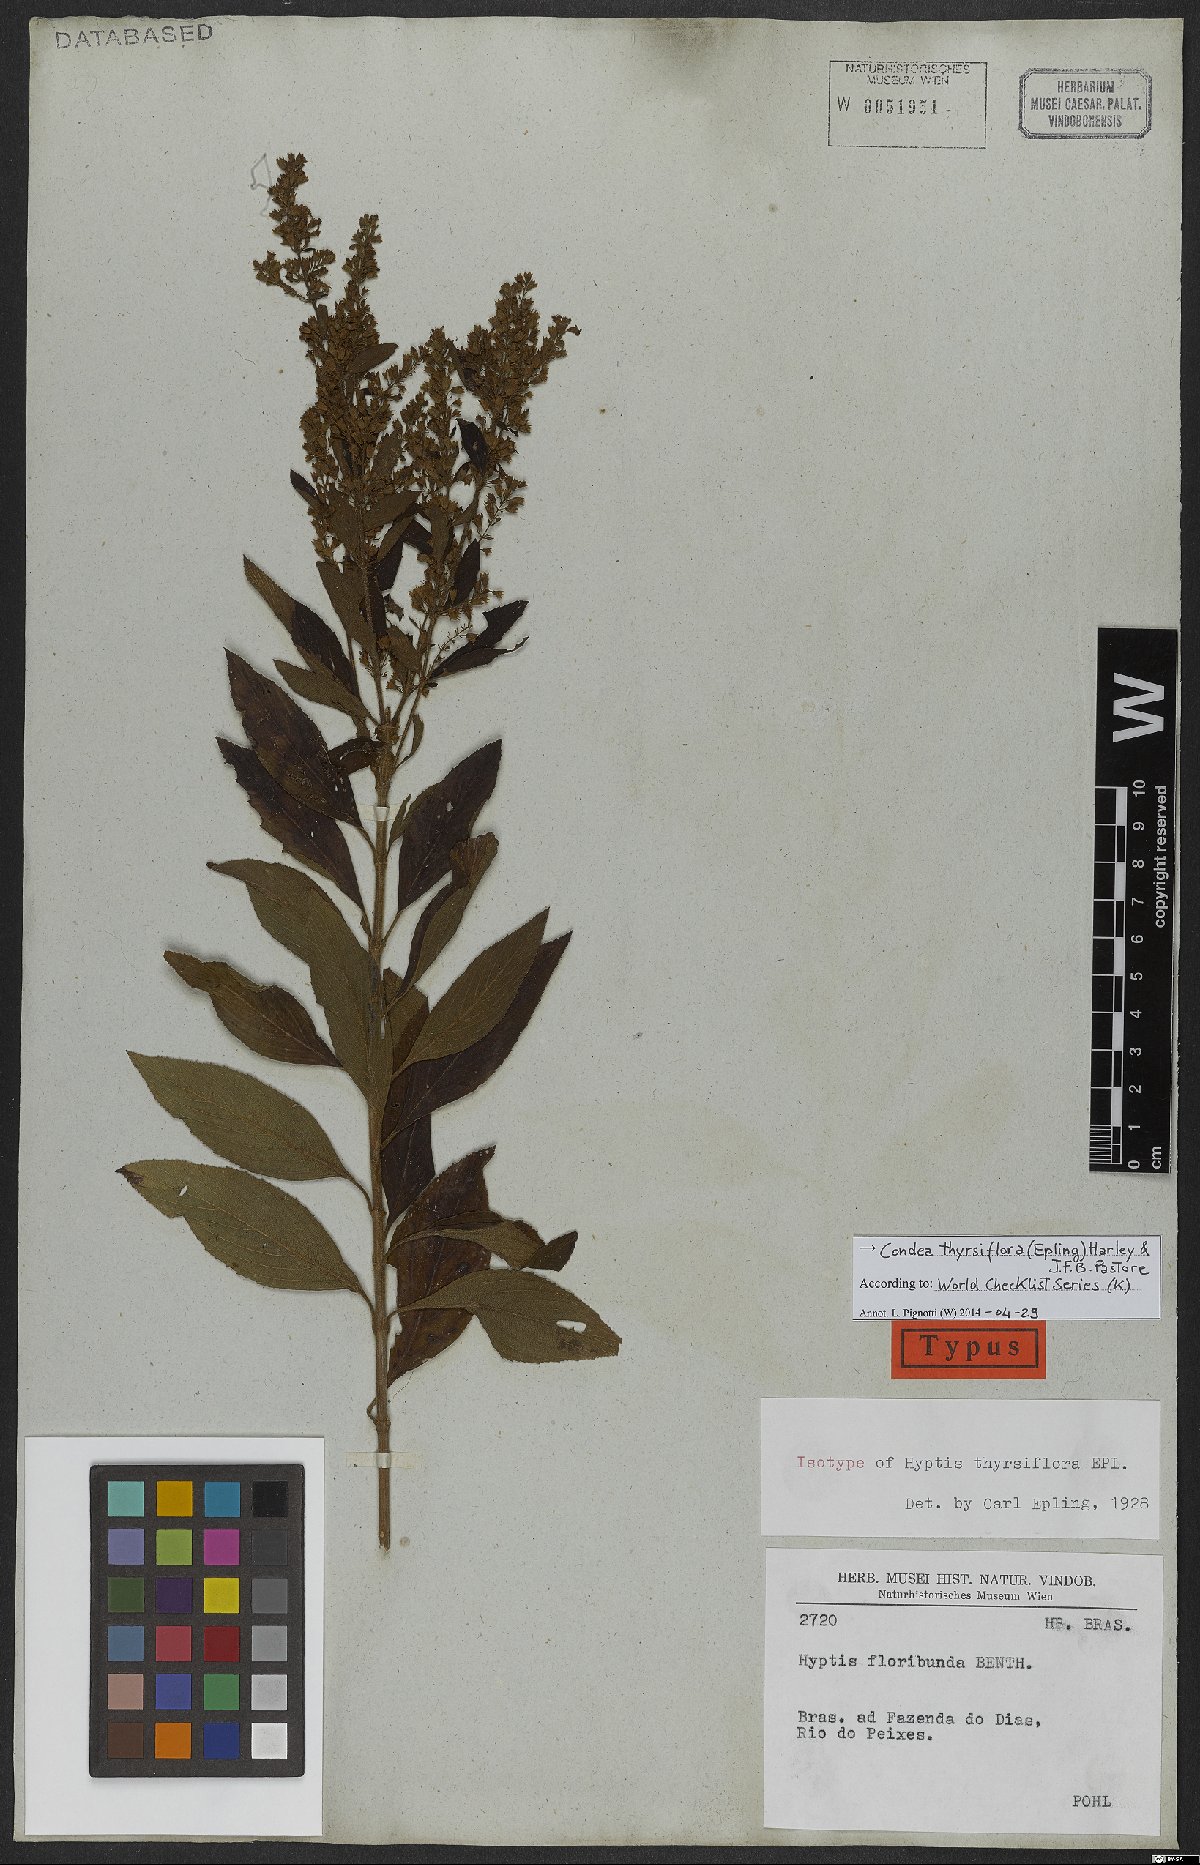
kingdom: Plantae
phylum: Tracheophyta
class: Magnoliopsida
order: Lamiales
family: Lamiaceae
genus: Condea
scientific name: Condea thyrsiflora
